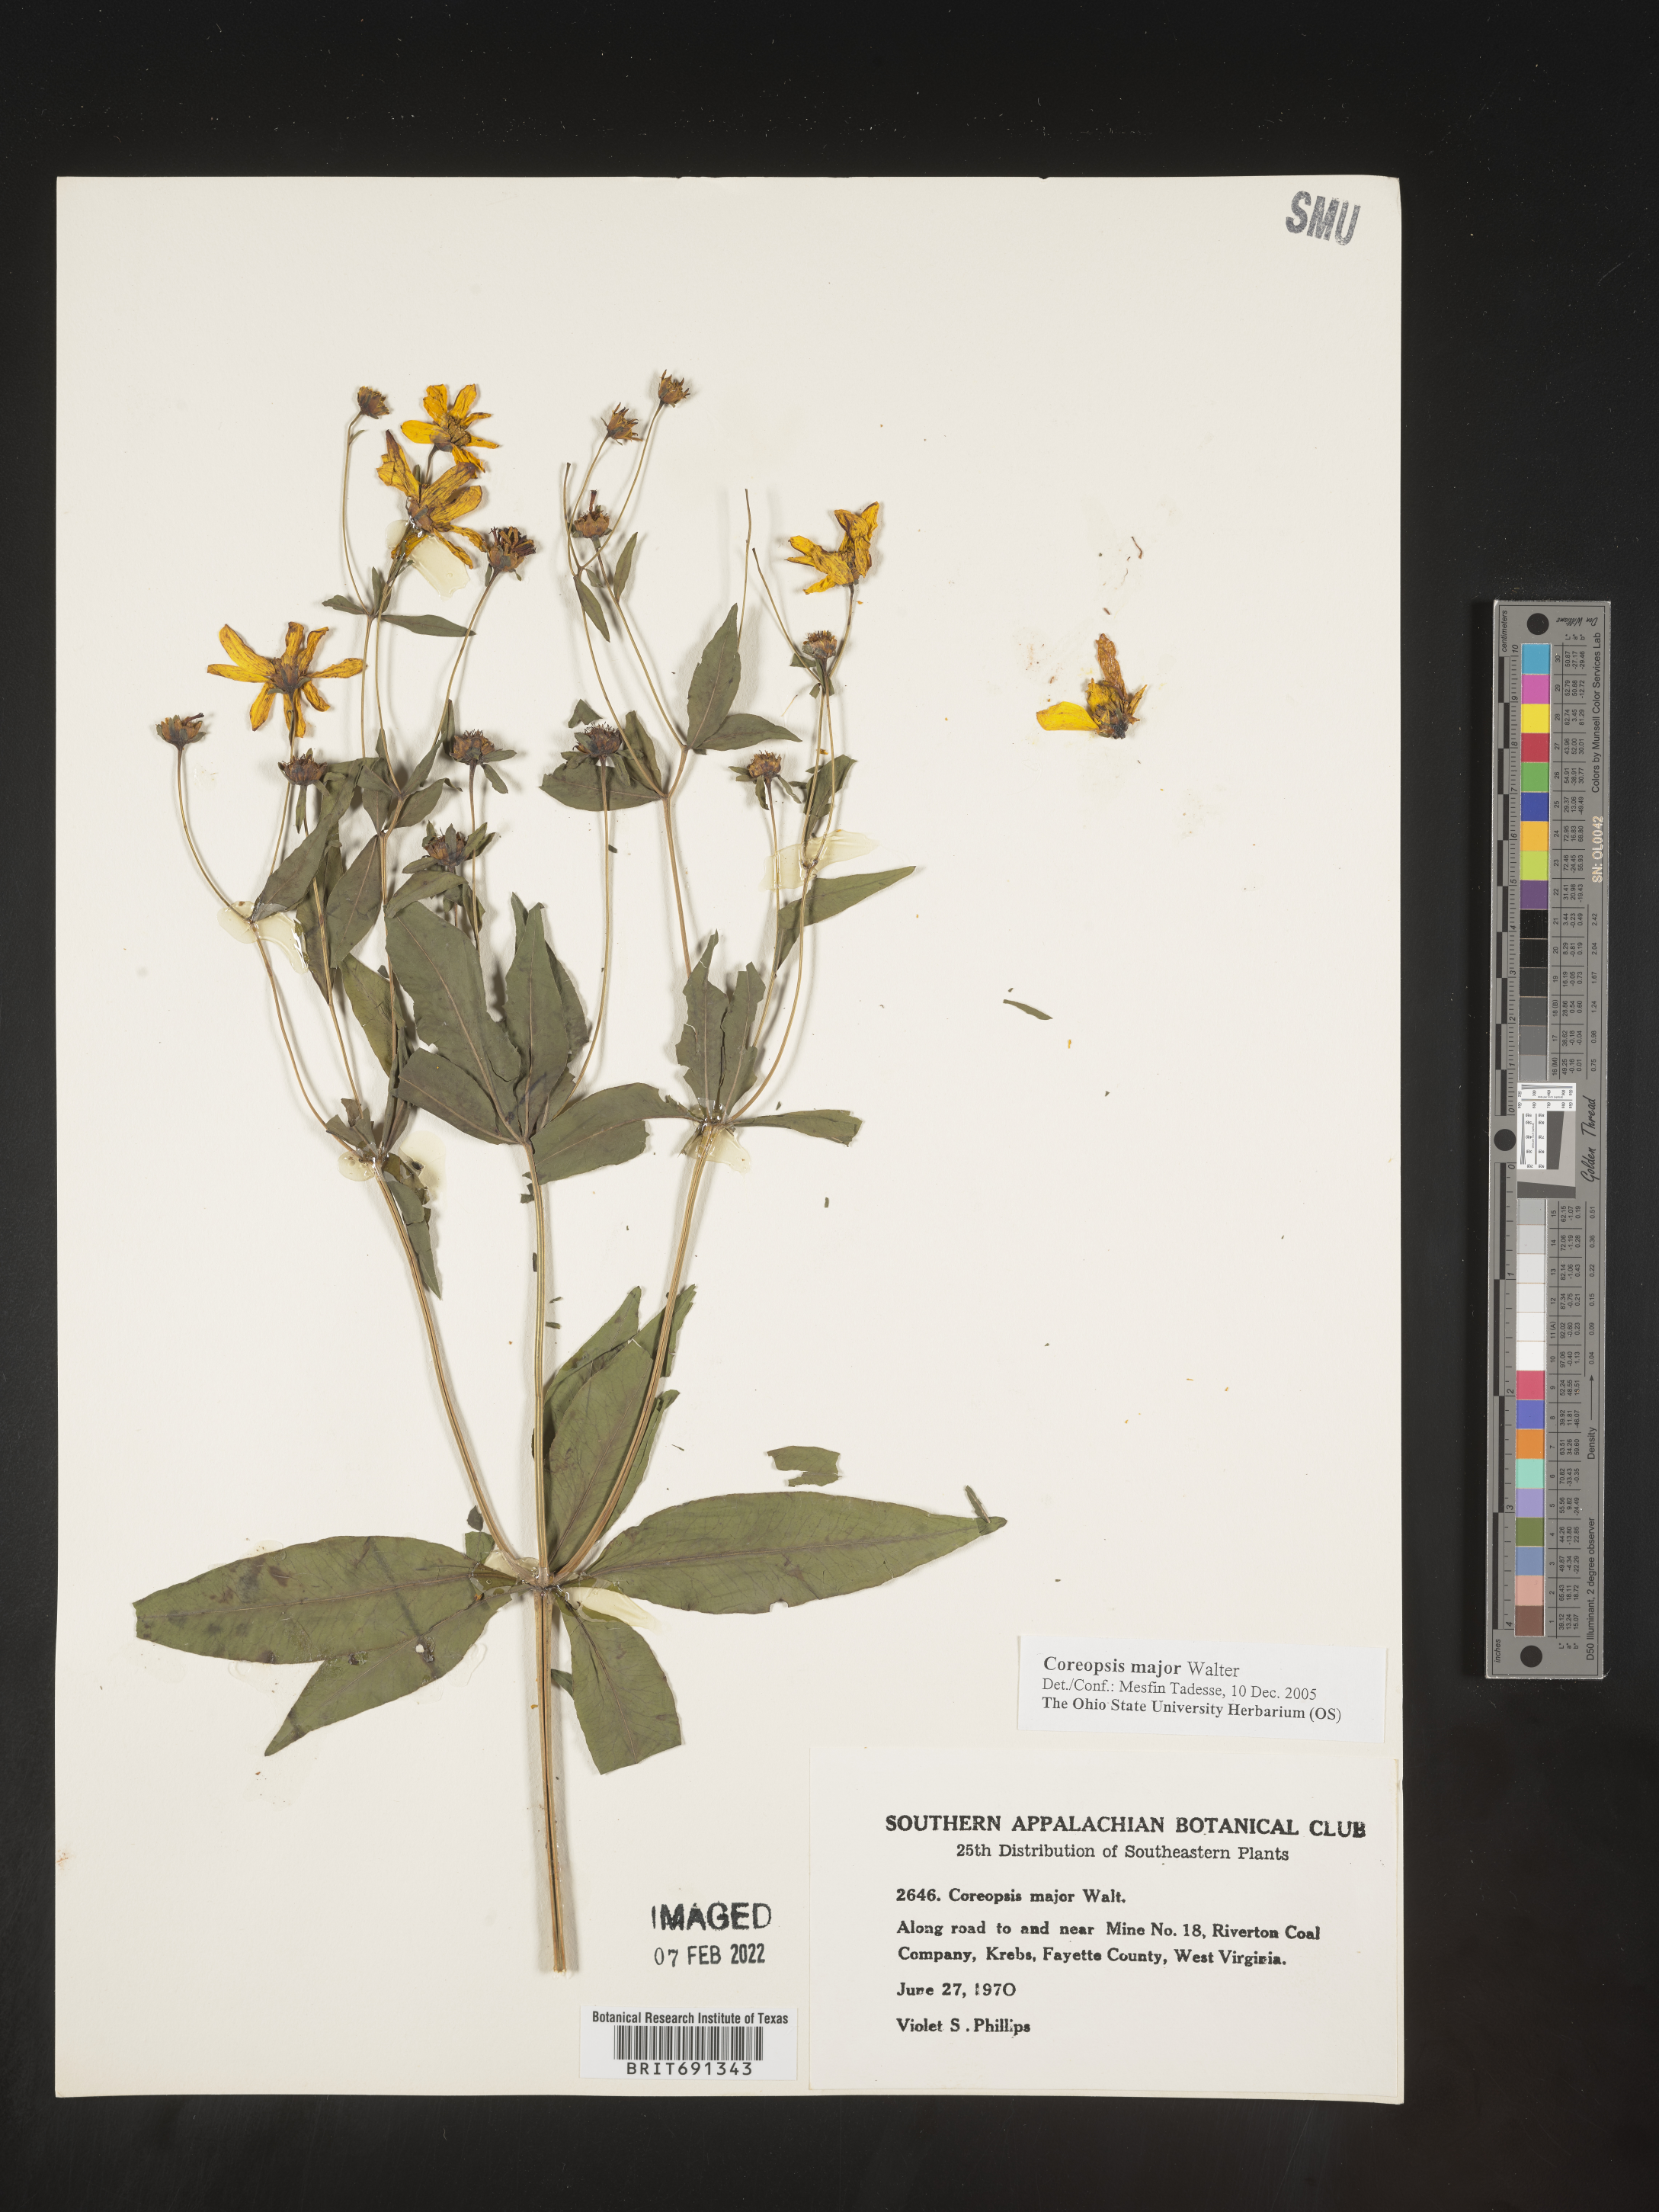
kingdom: Plantae
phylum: Tracheophyta
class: Magnoliopsida
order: Asterales
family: Asteraceae
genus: Coreopsis
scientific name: Coreopsis major
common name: Forest tickseed
